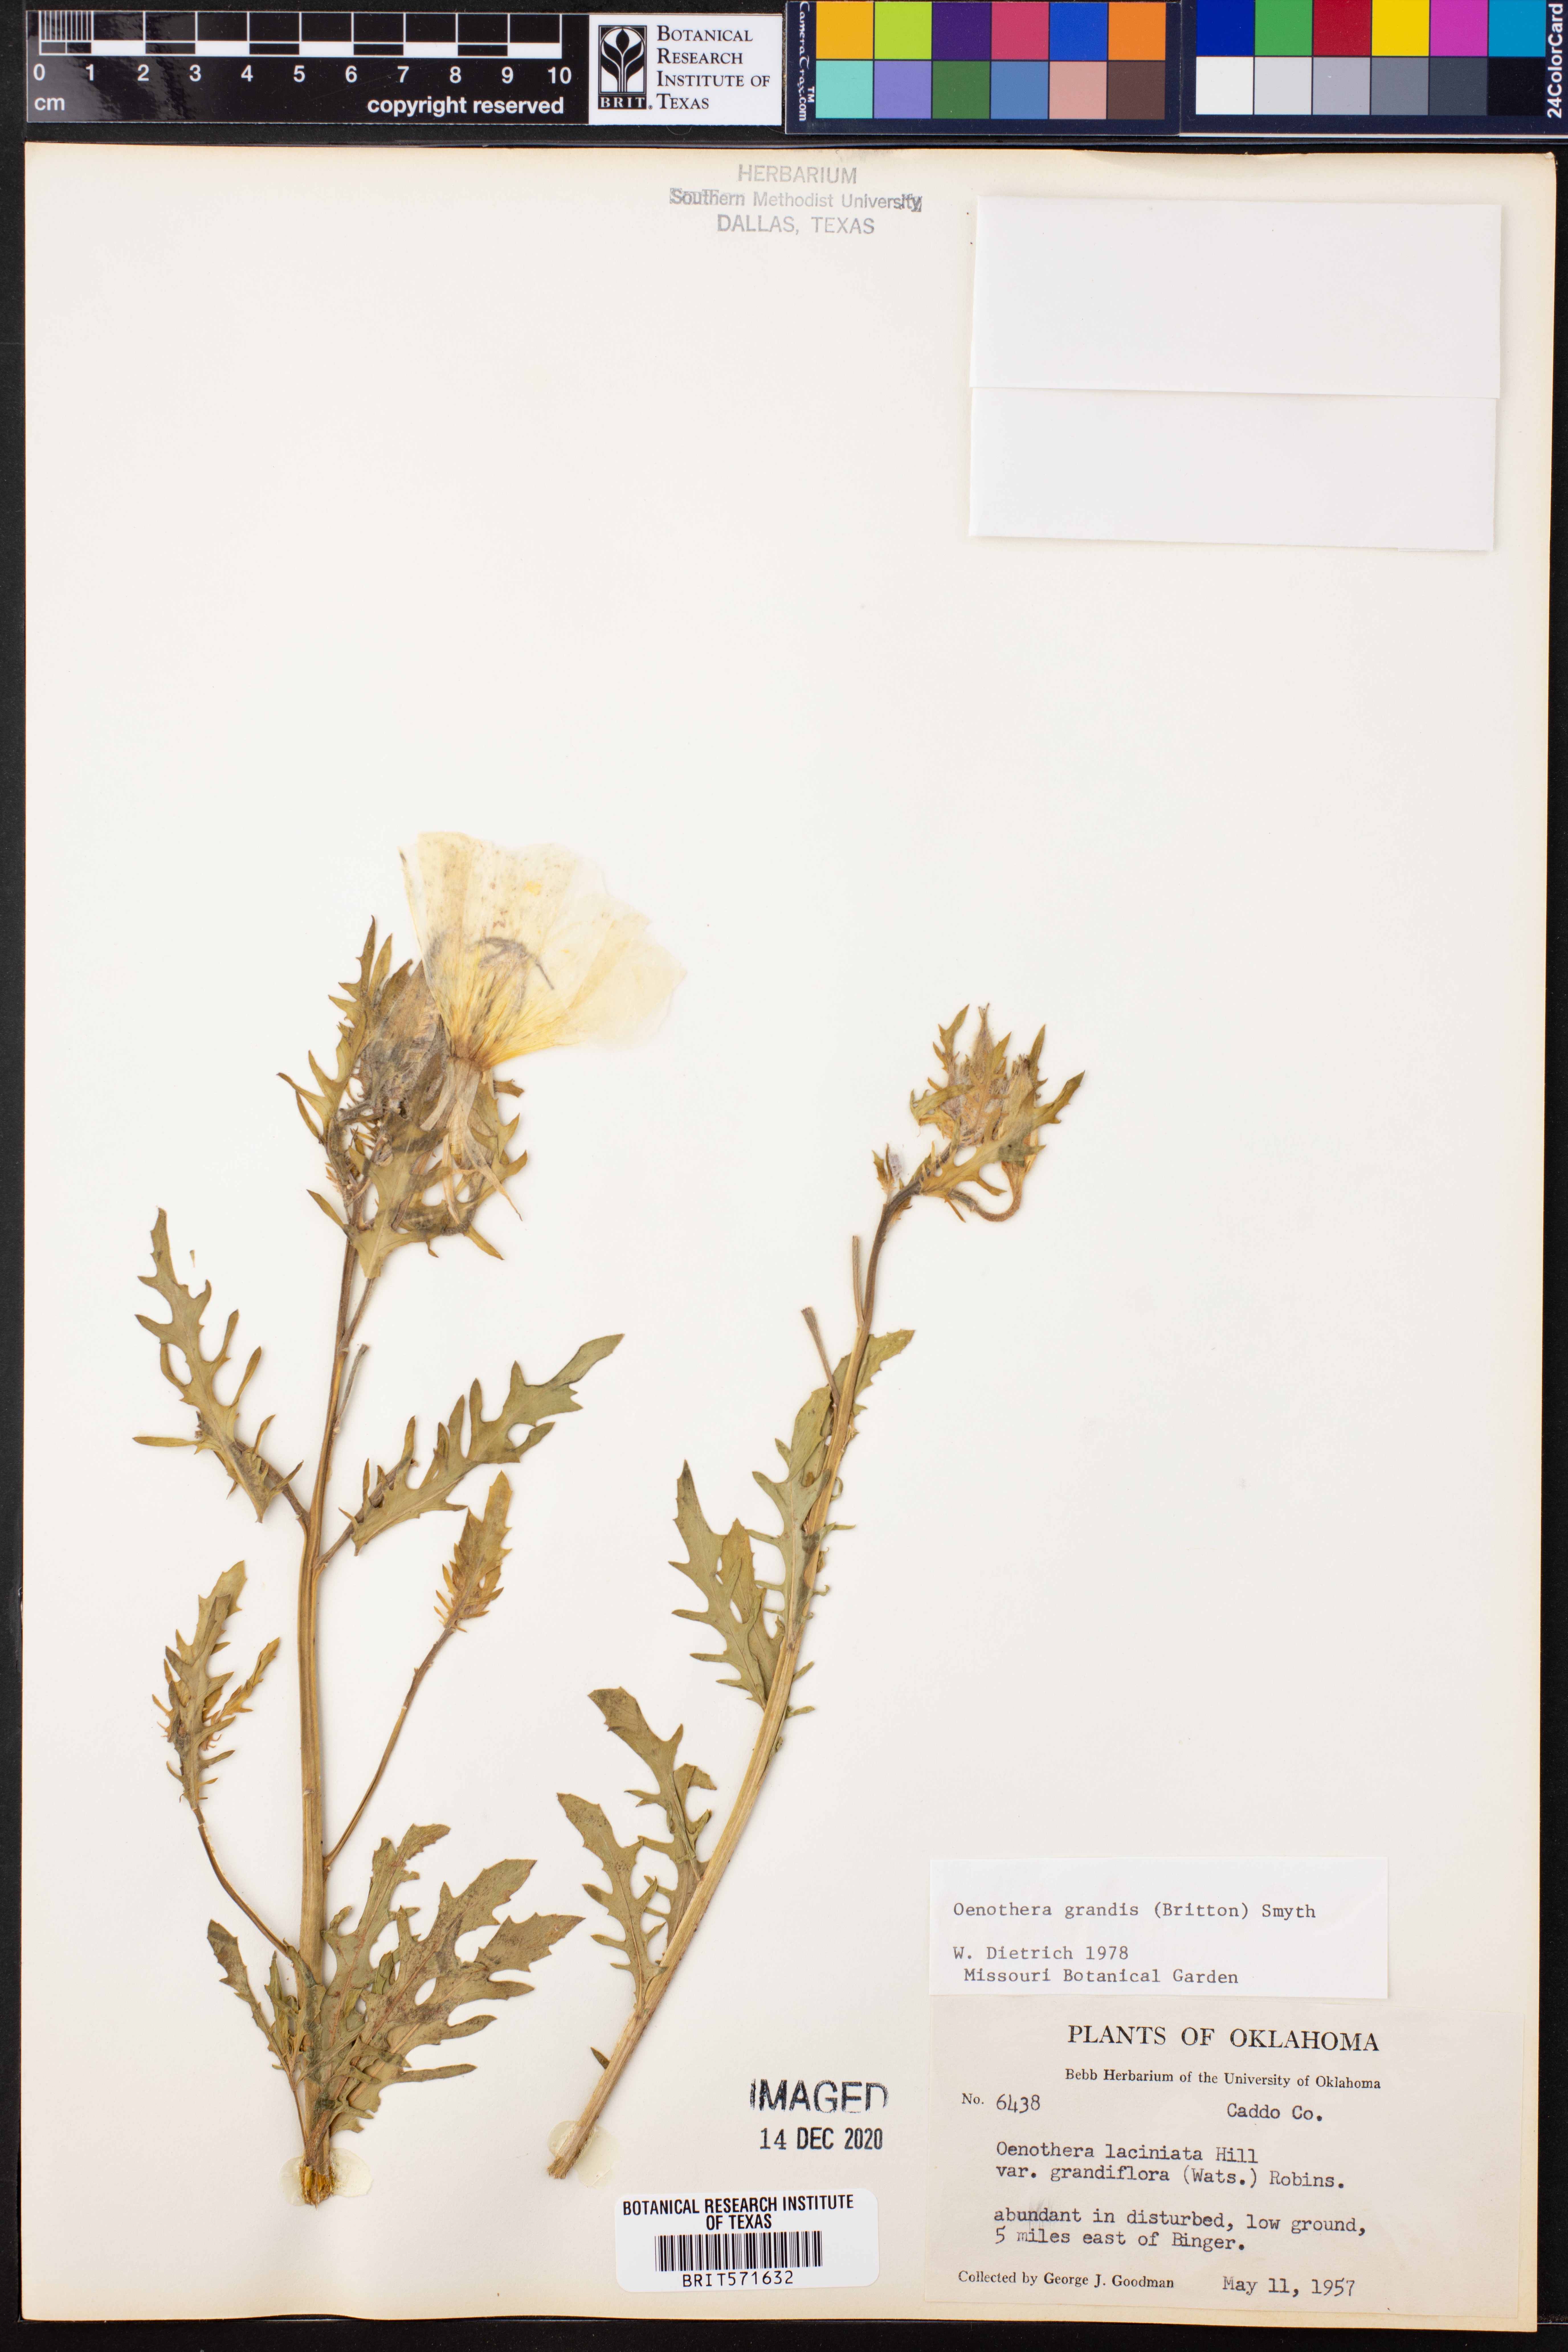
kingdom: Plantae
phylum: Tracheophyta
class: Magnoliopsida
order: Myrtales
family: Onagraceae
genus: Oenothera
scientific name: Oenothera grandis
